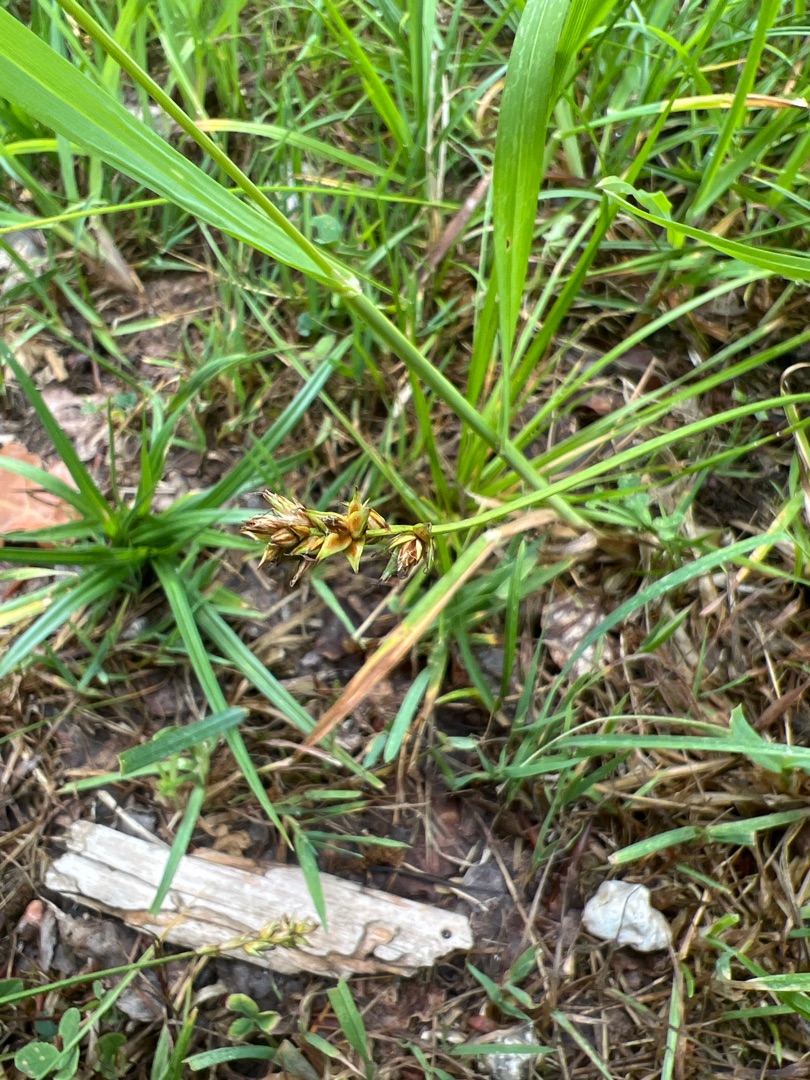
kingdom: Plantae
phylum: Tracheophyta
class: Liliopsida
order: Poales
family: Cyperaceae
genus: Carex
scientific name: Carex spicata
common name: Spidskapslet star
